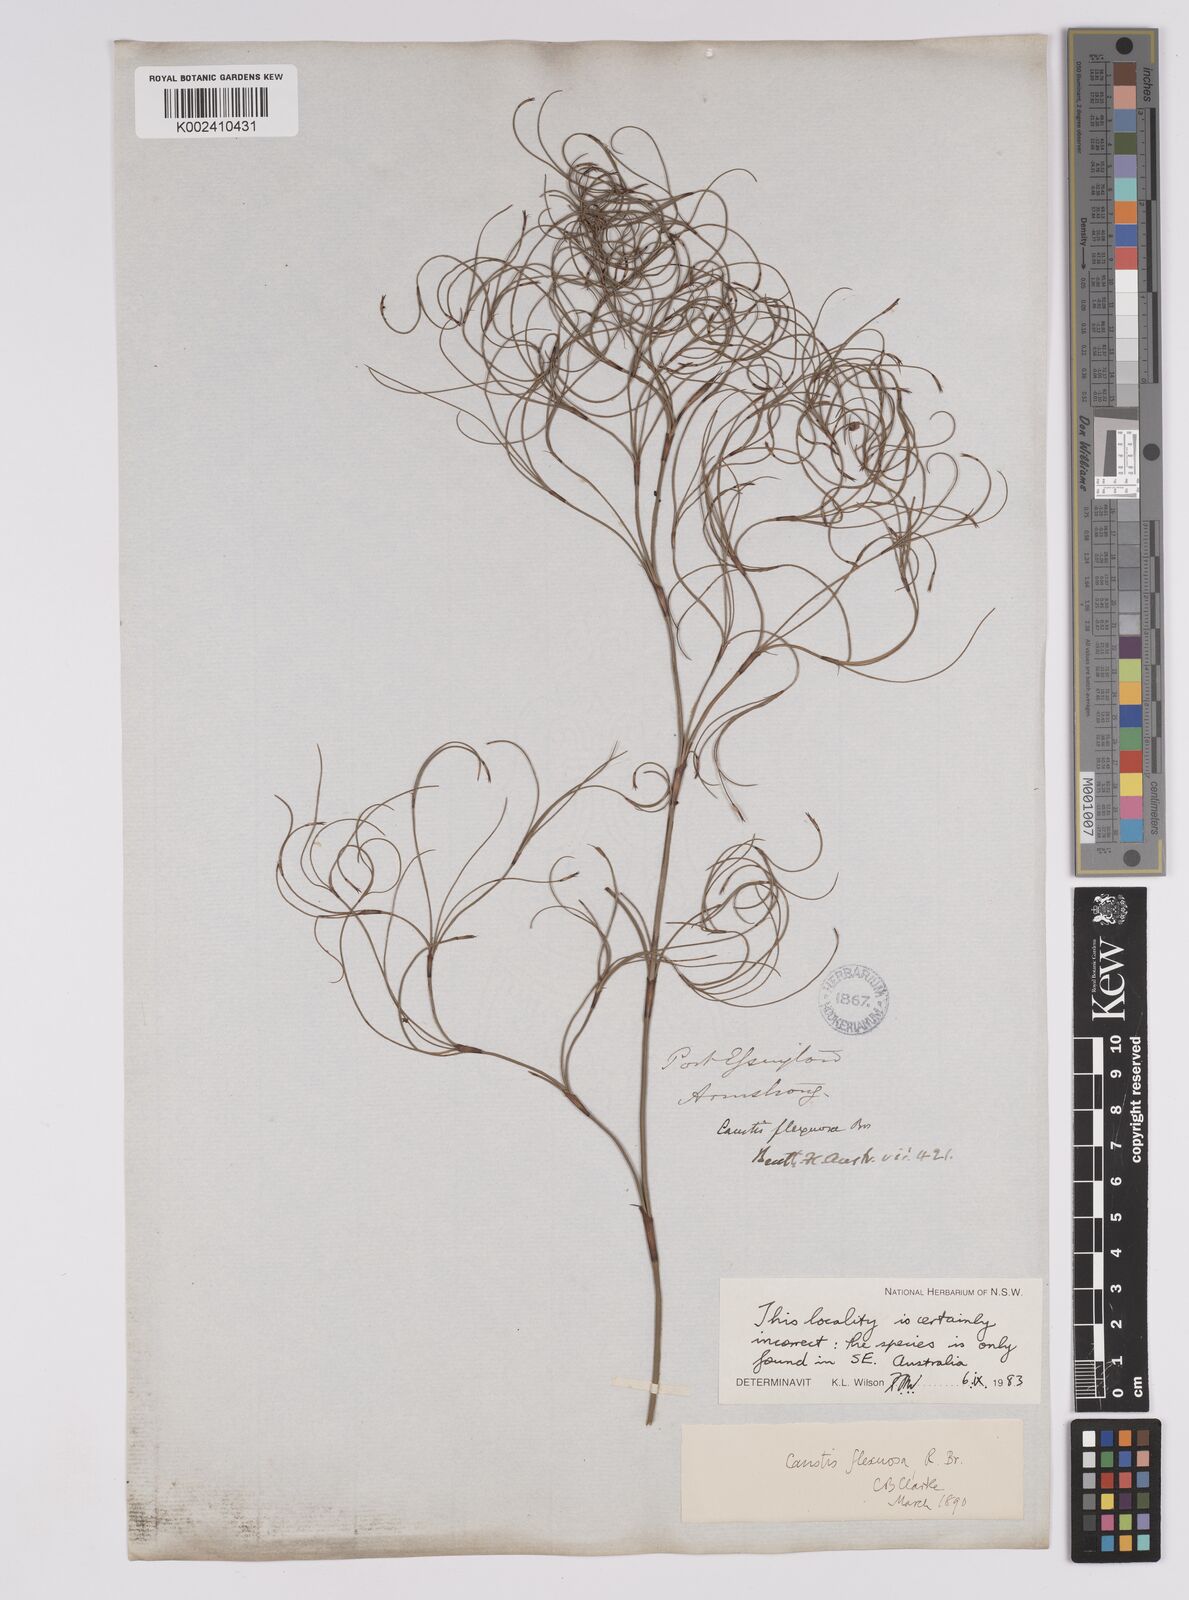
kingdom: Plantae
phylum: Tracheophyta
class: Liliopsida
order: Poales
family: Cyperaceae
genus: Caustis
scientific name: Caustis flexuosa
